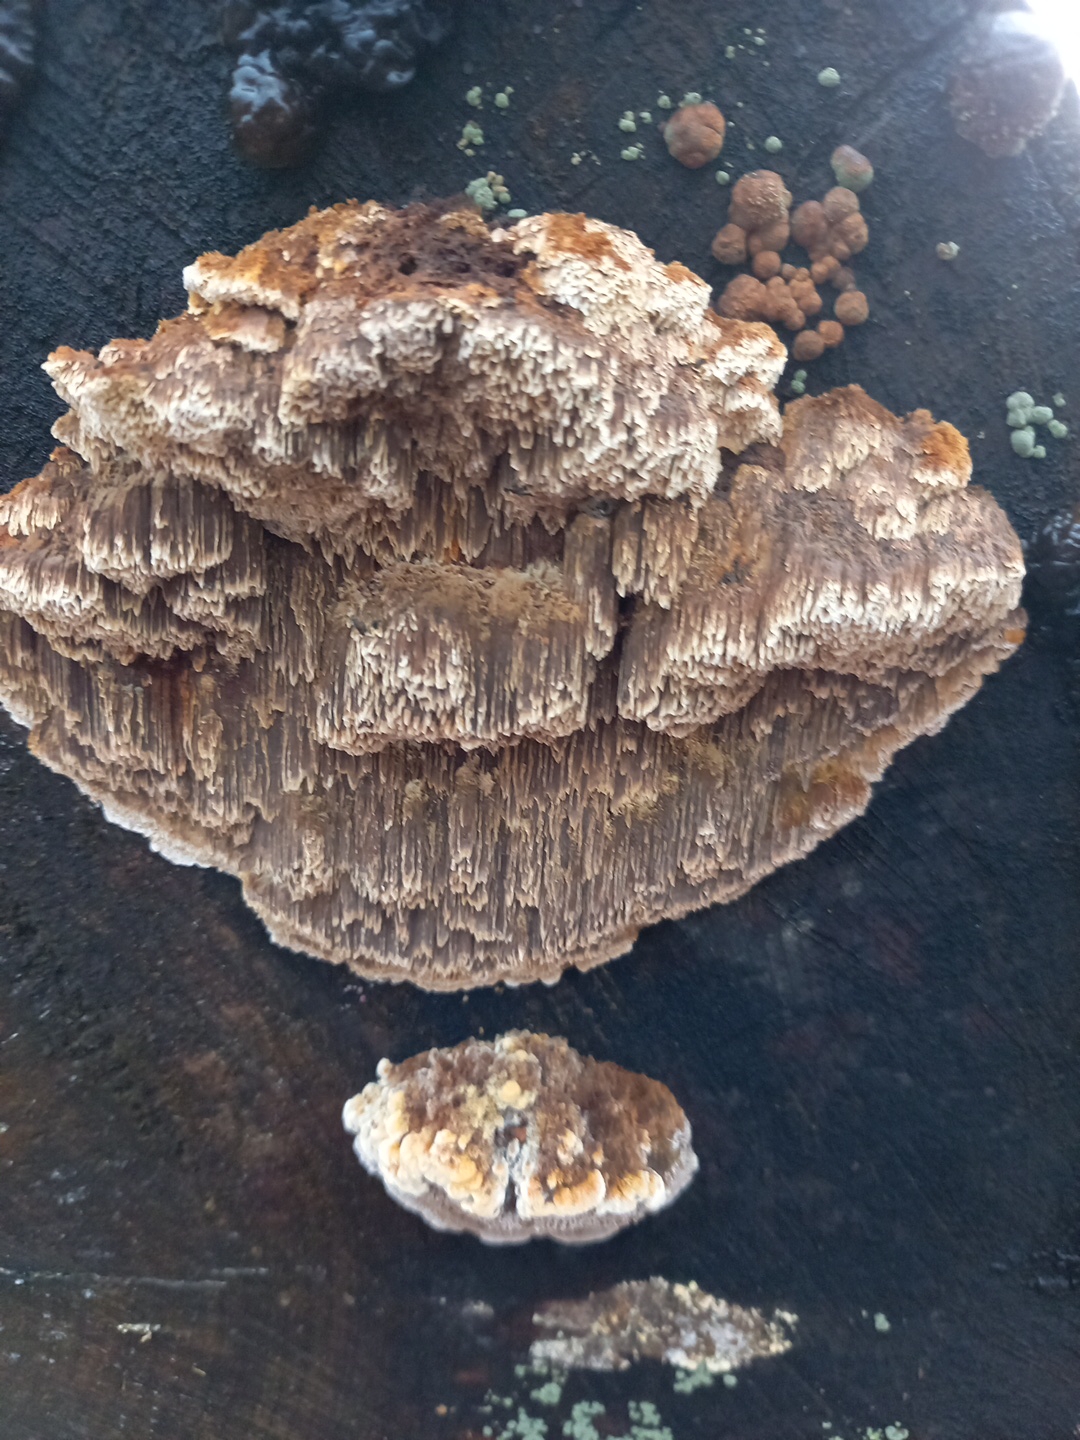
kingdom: Fungi
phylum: Basidiomycota
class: Agaricomycetes
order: Hymenochaetales
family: Hymenochaetaceae
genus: Mensularia
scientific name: Mensularia nodulosa
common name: bøge-spejlporesvamp
